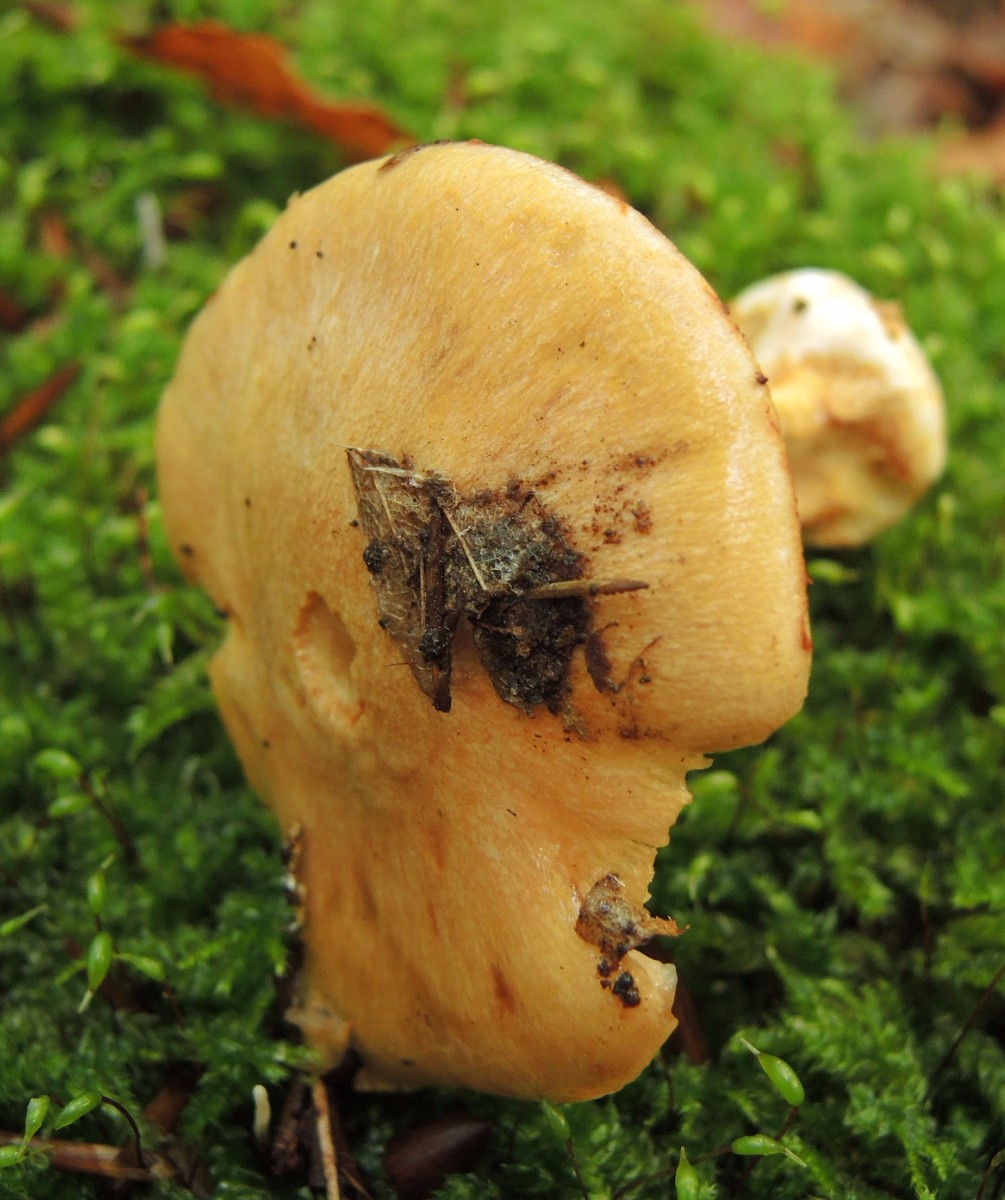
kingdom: Fungi
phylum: Basidiomycota
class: Agaricomycetes
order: Agaricales
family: Cortinariaceae
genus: Thaxterogaster
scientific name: Thaxterogaster talus
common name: knogle-slørhat
